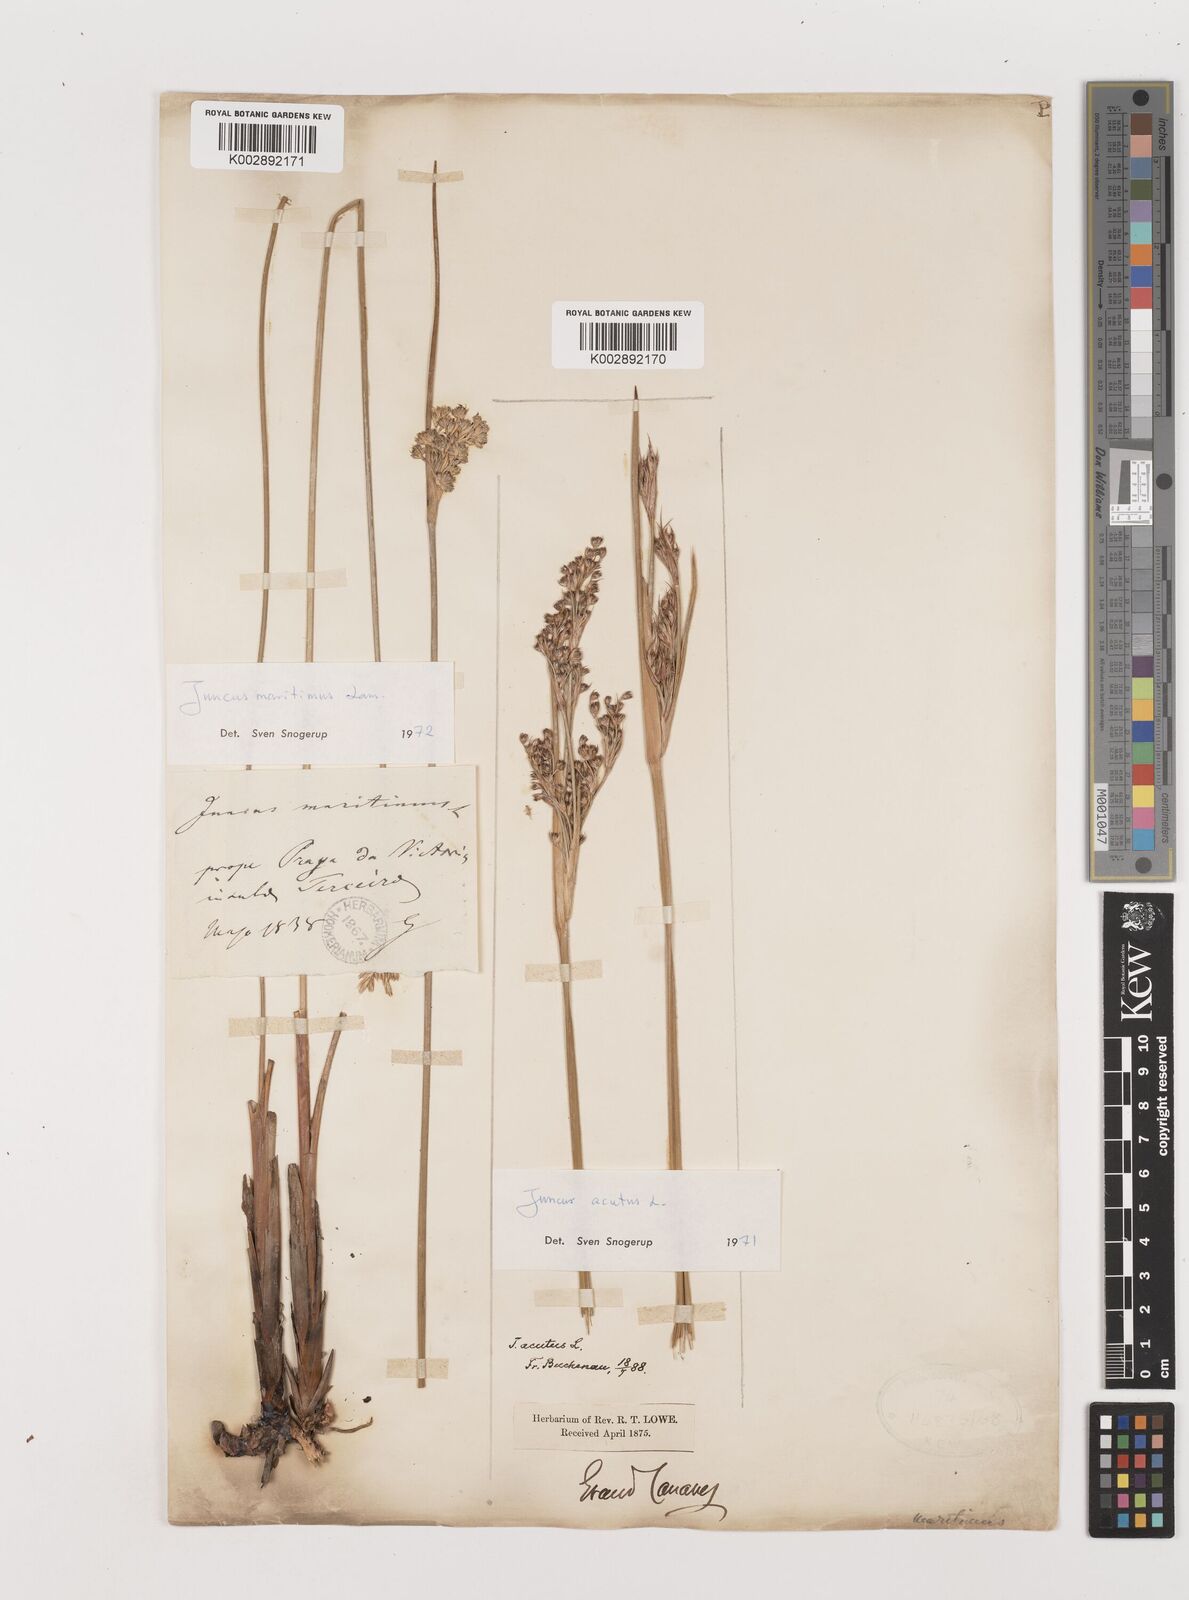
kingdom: Plantae
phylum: Tracheophyta
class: Liliopsida
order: Poales
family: Juncaceae
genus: Juncus
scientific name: Juncus maritimus
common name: Sea rush
